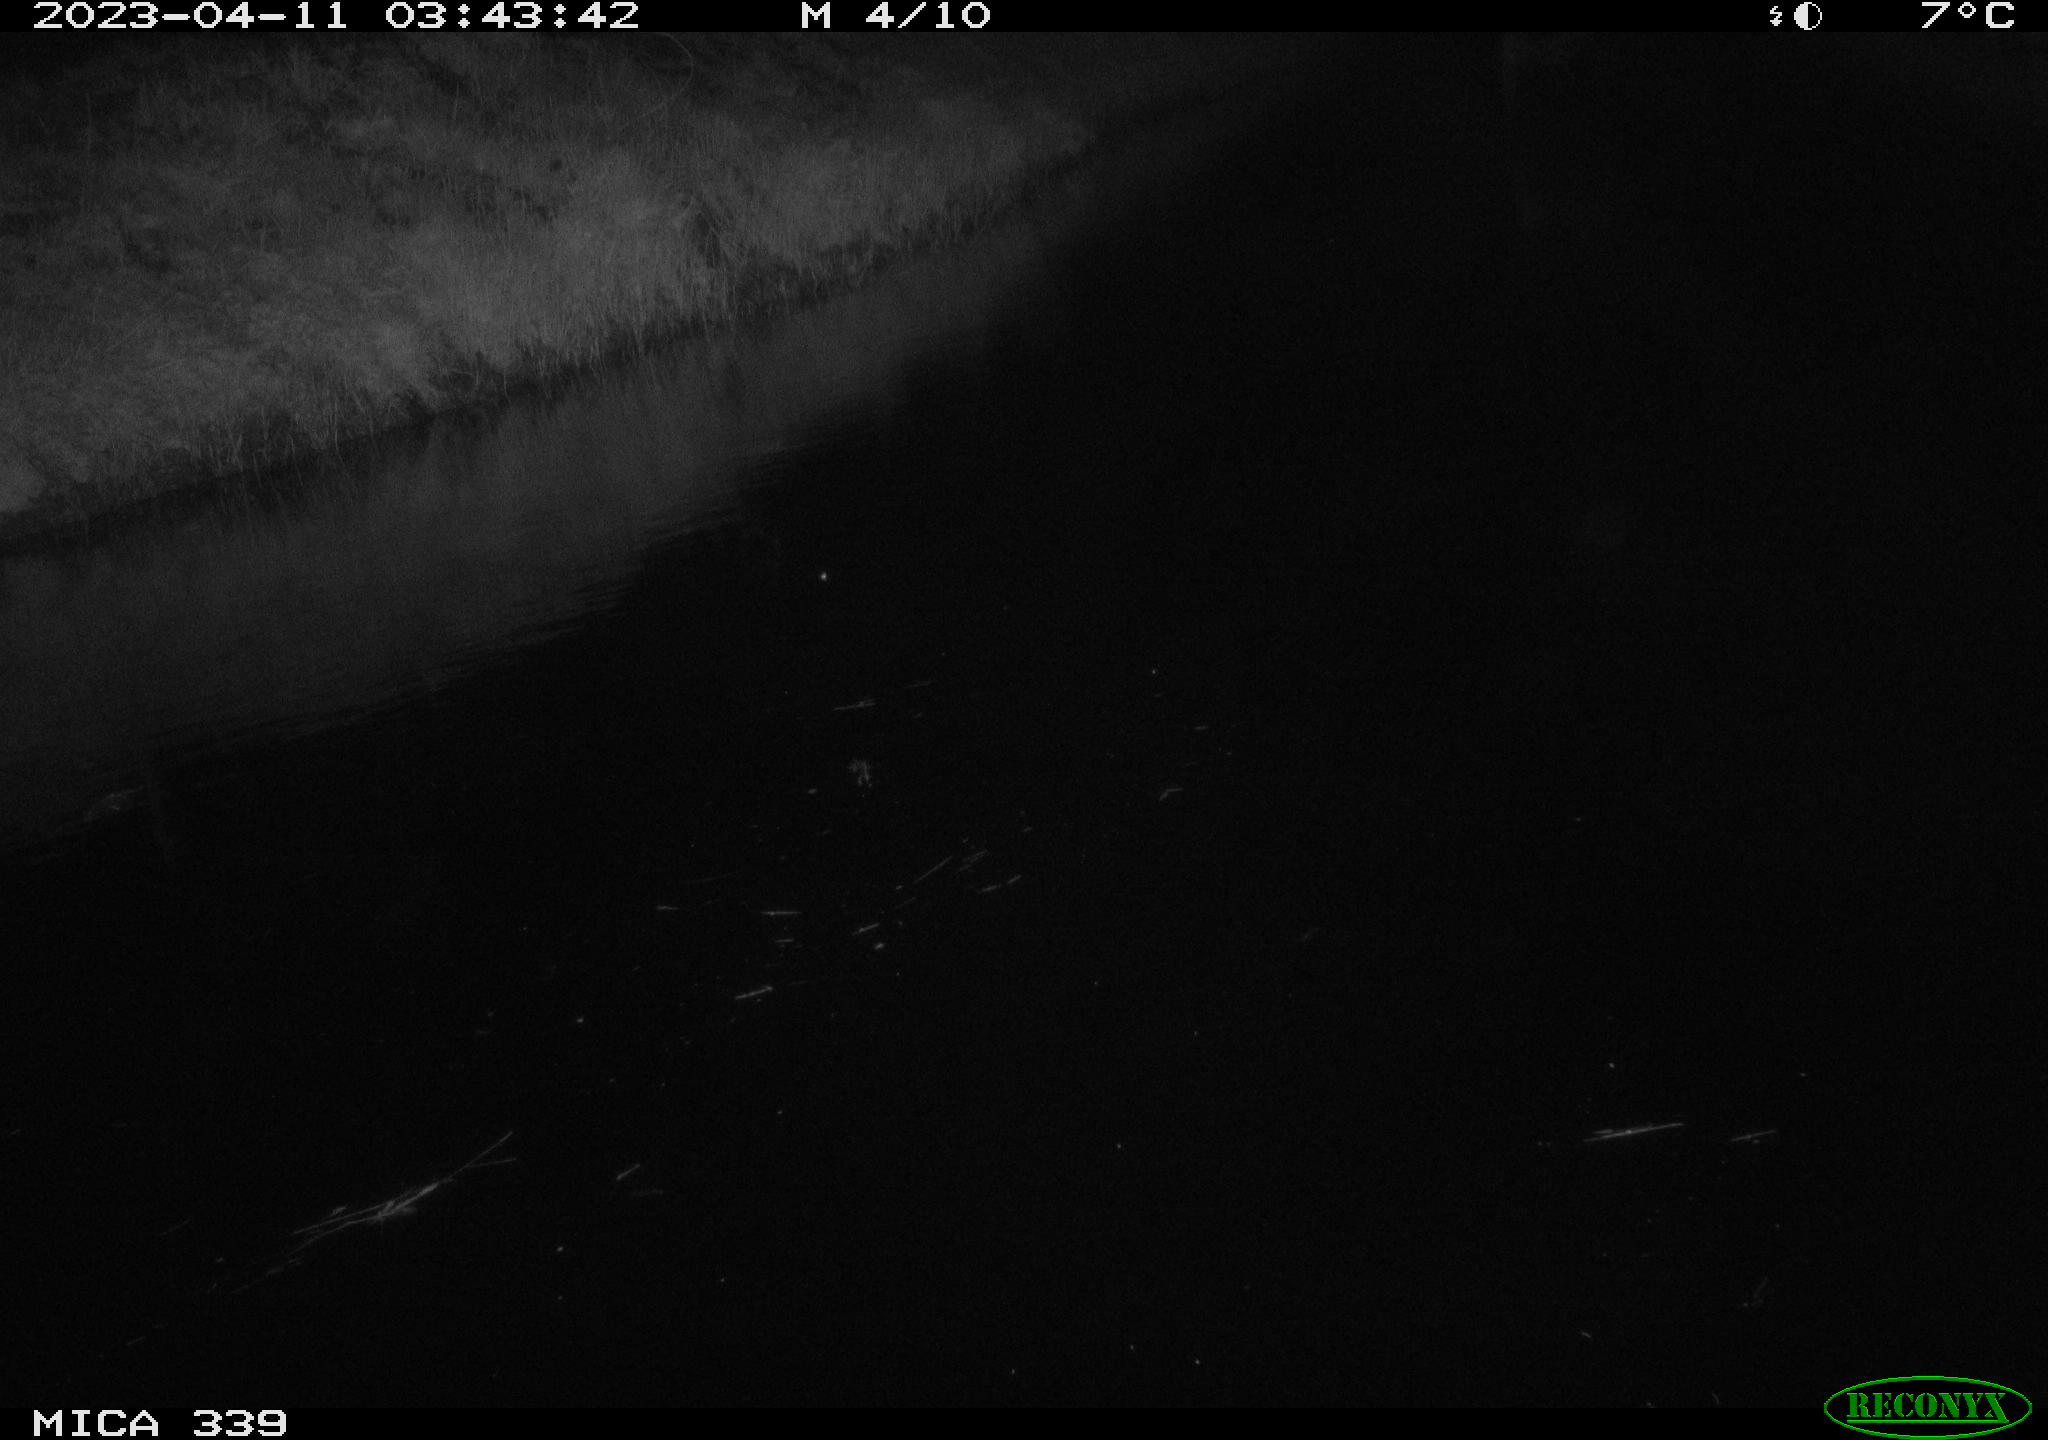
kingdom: Animalia
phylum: Chordata
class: Aves
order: Pelecaniformes
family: Ardeidae
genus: Ardea
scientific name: Ardea cinerea
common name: Grey heron
